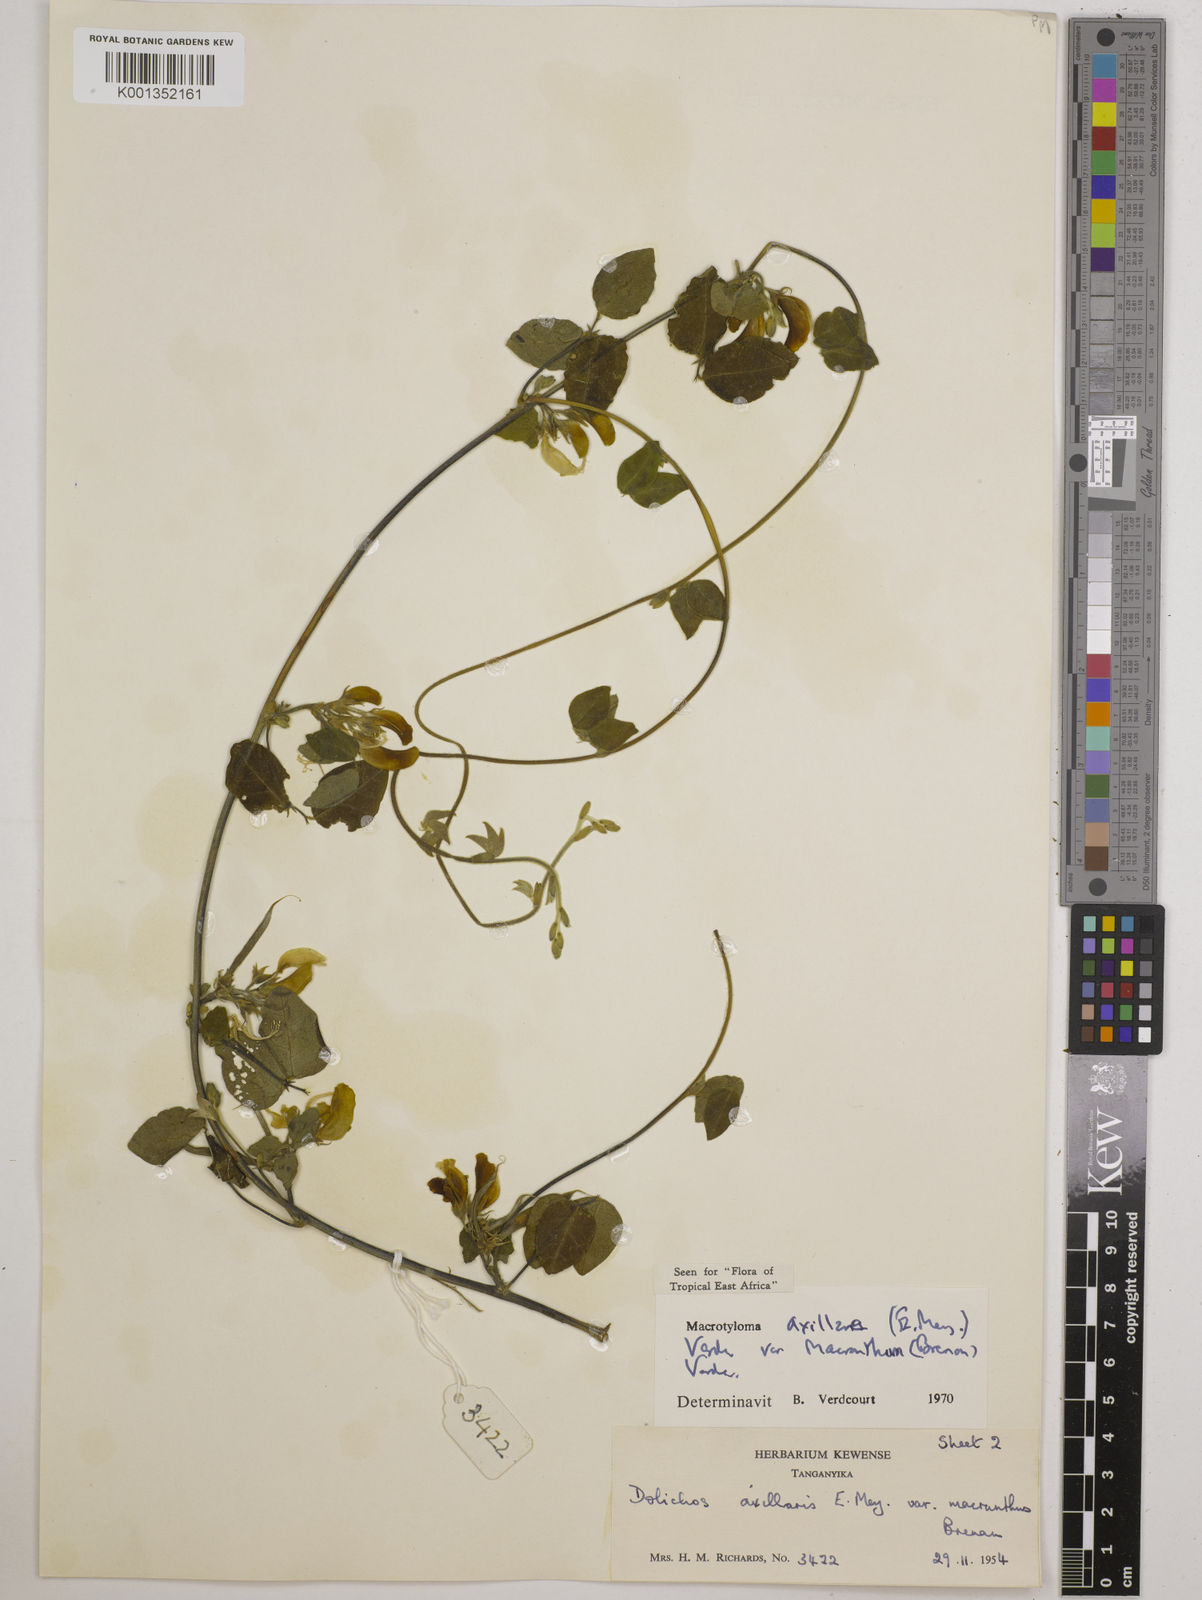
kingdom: Plantae
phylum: Tracheophyta
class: Magnoliopsida
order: Fabales
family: Fabaceae
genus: Macrotyloma
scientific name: Macrotyloma
